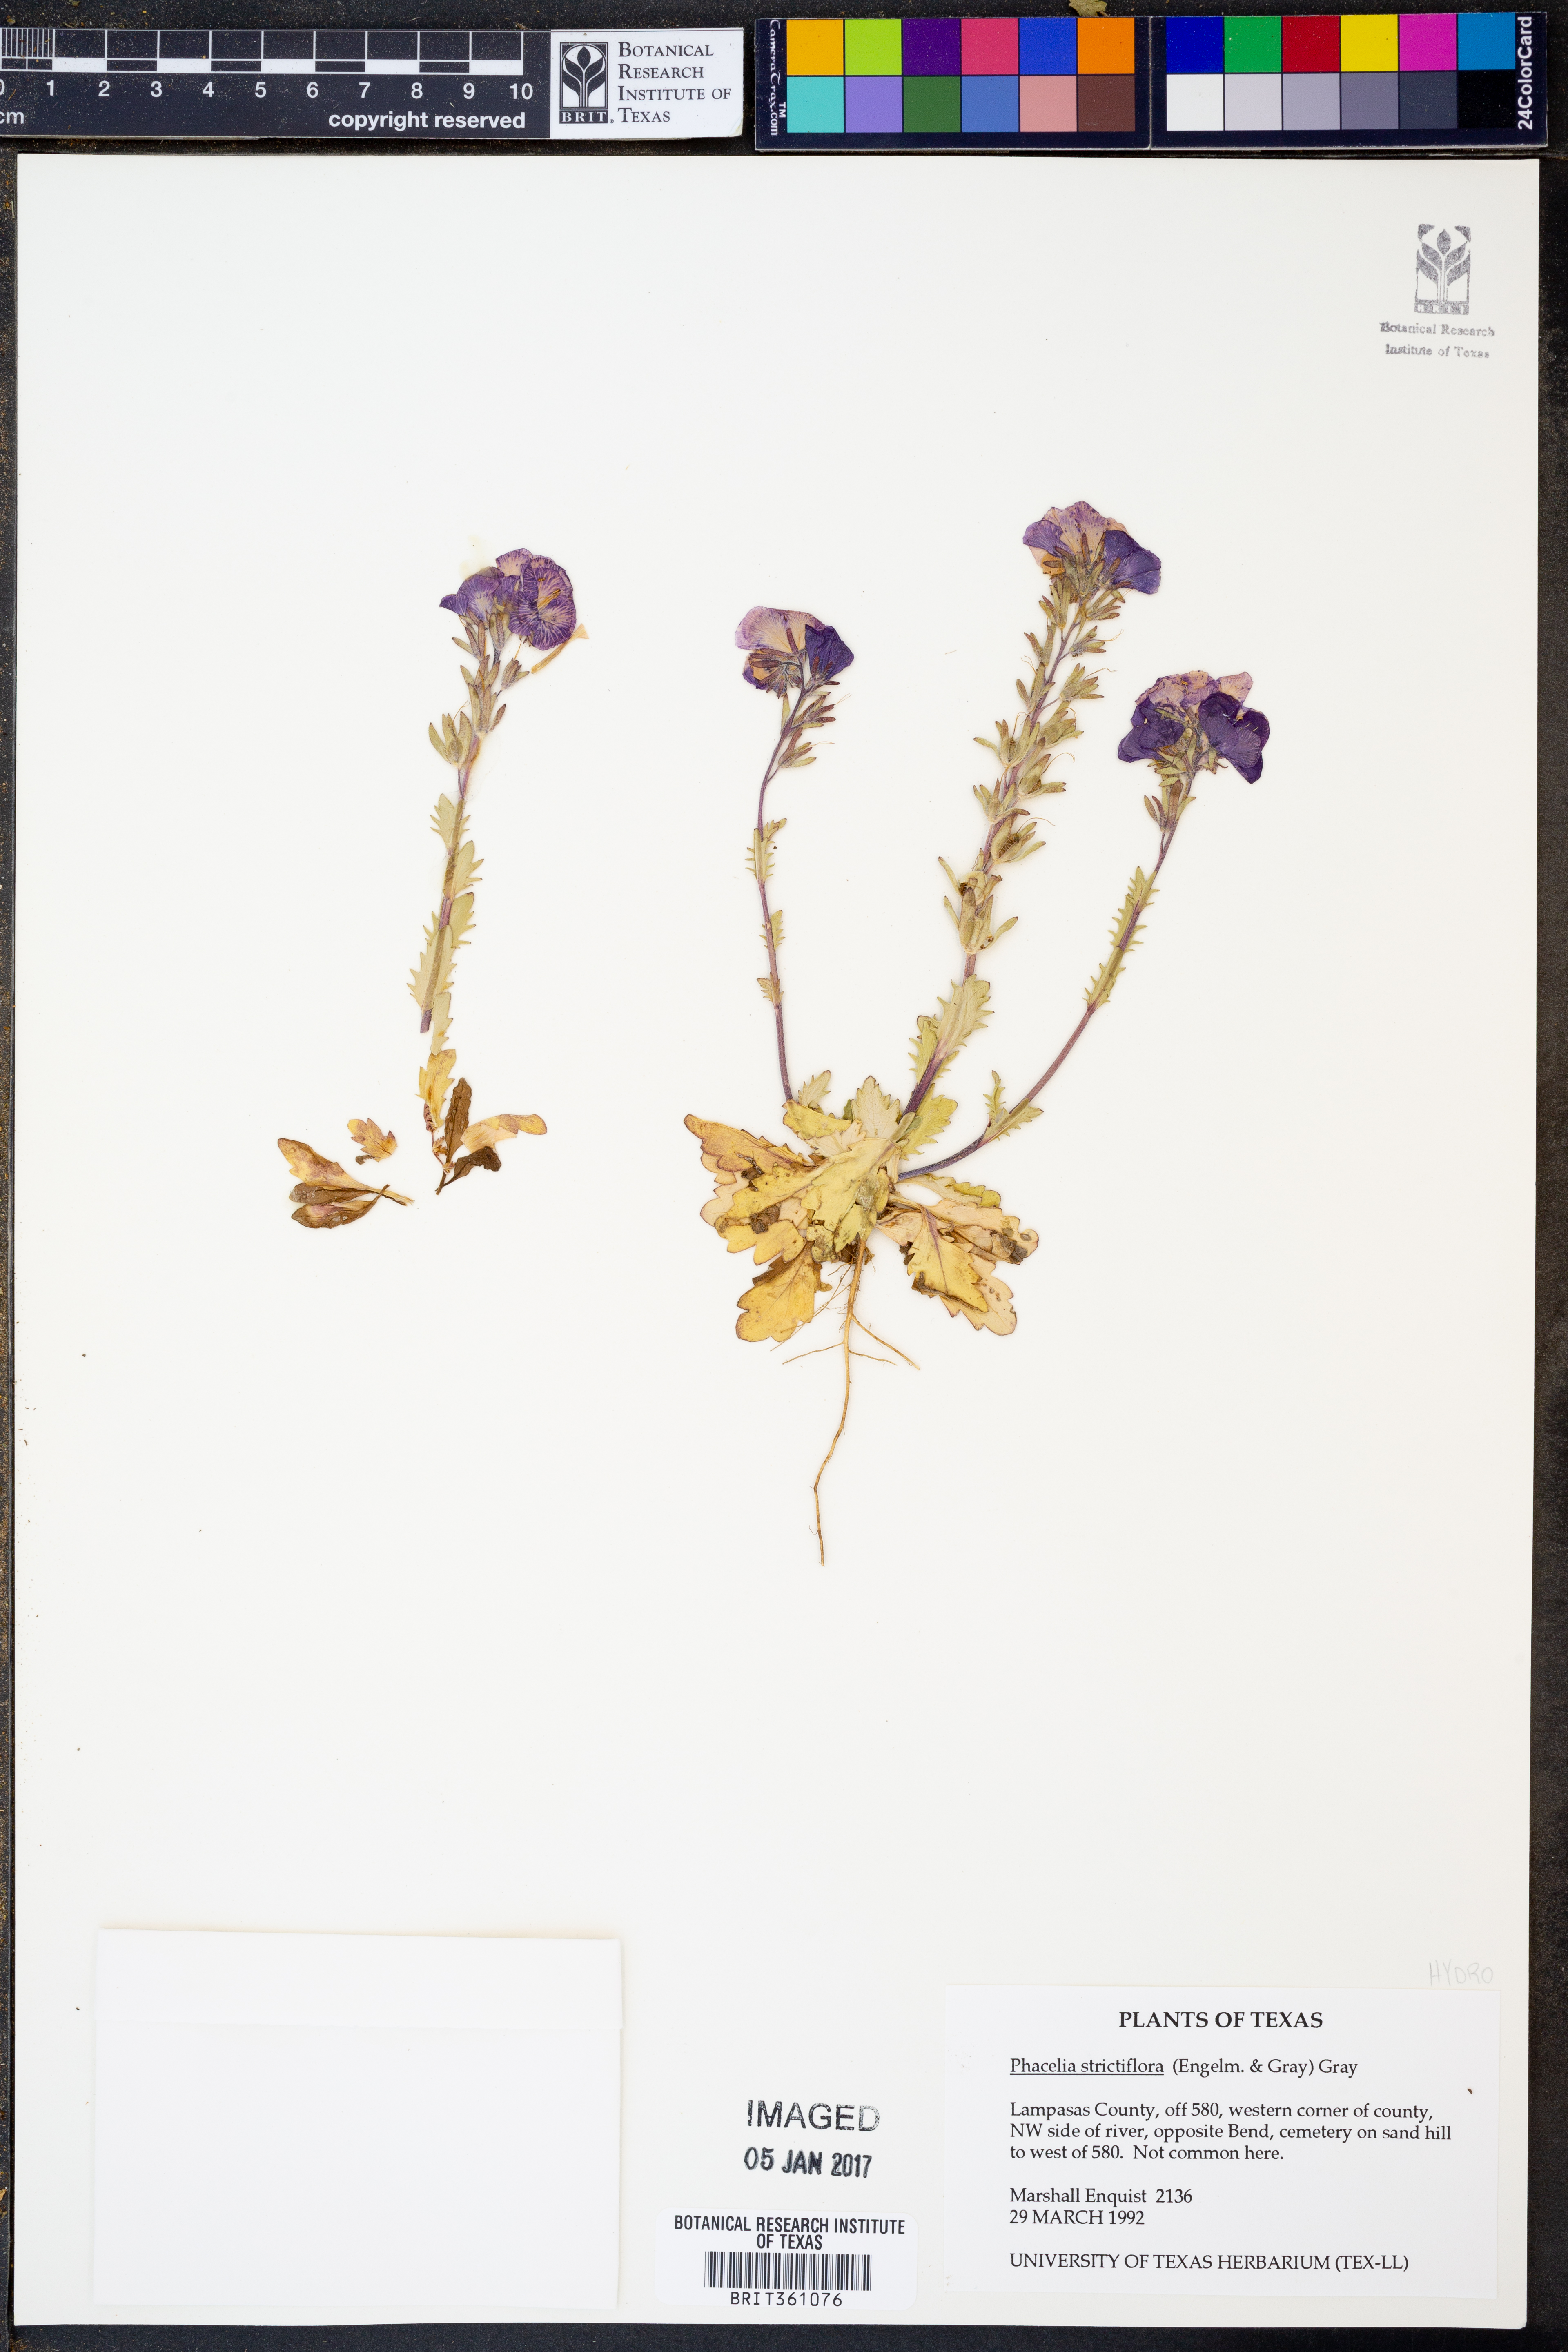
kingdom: Plantae
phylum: Tracheophyta
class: Magnoliopsida
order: Boraginales
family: Hydrophyllaceae
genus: Phacelia
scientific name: Phacelia strictiflora
